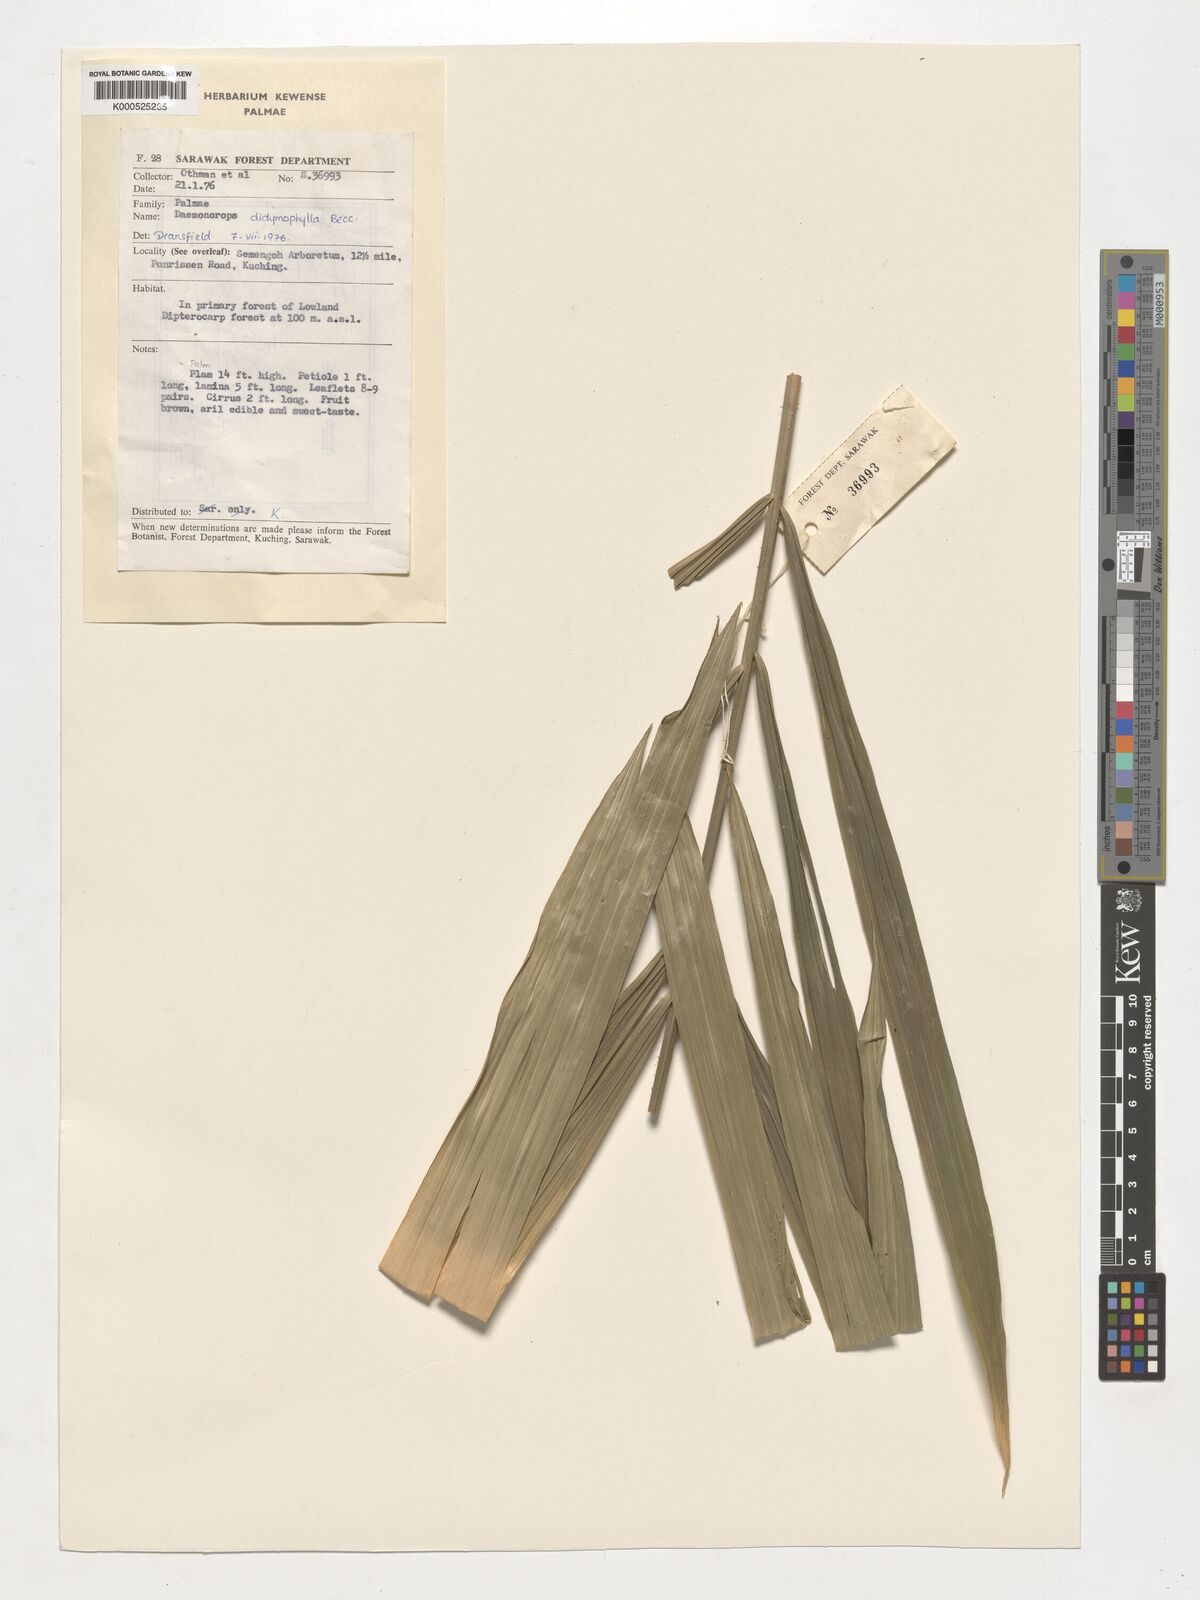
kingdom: Plantae
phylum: Tracheophyta
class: Liliopsida
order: Arecales
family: Arecaceae
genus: Calamus
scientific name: Calamus gracilipes
